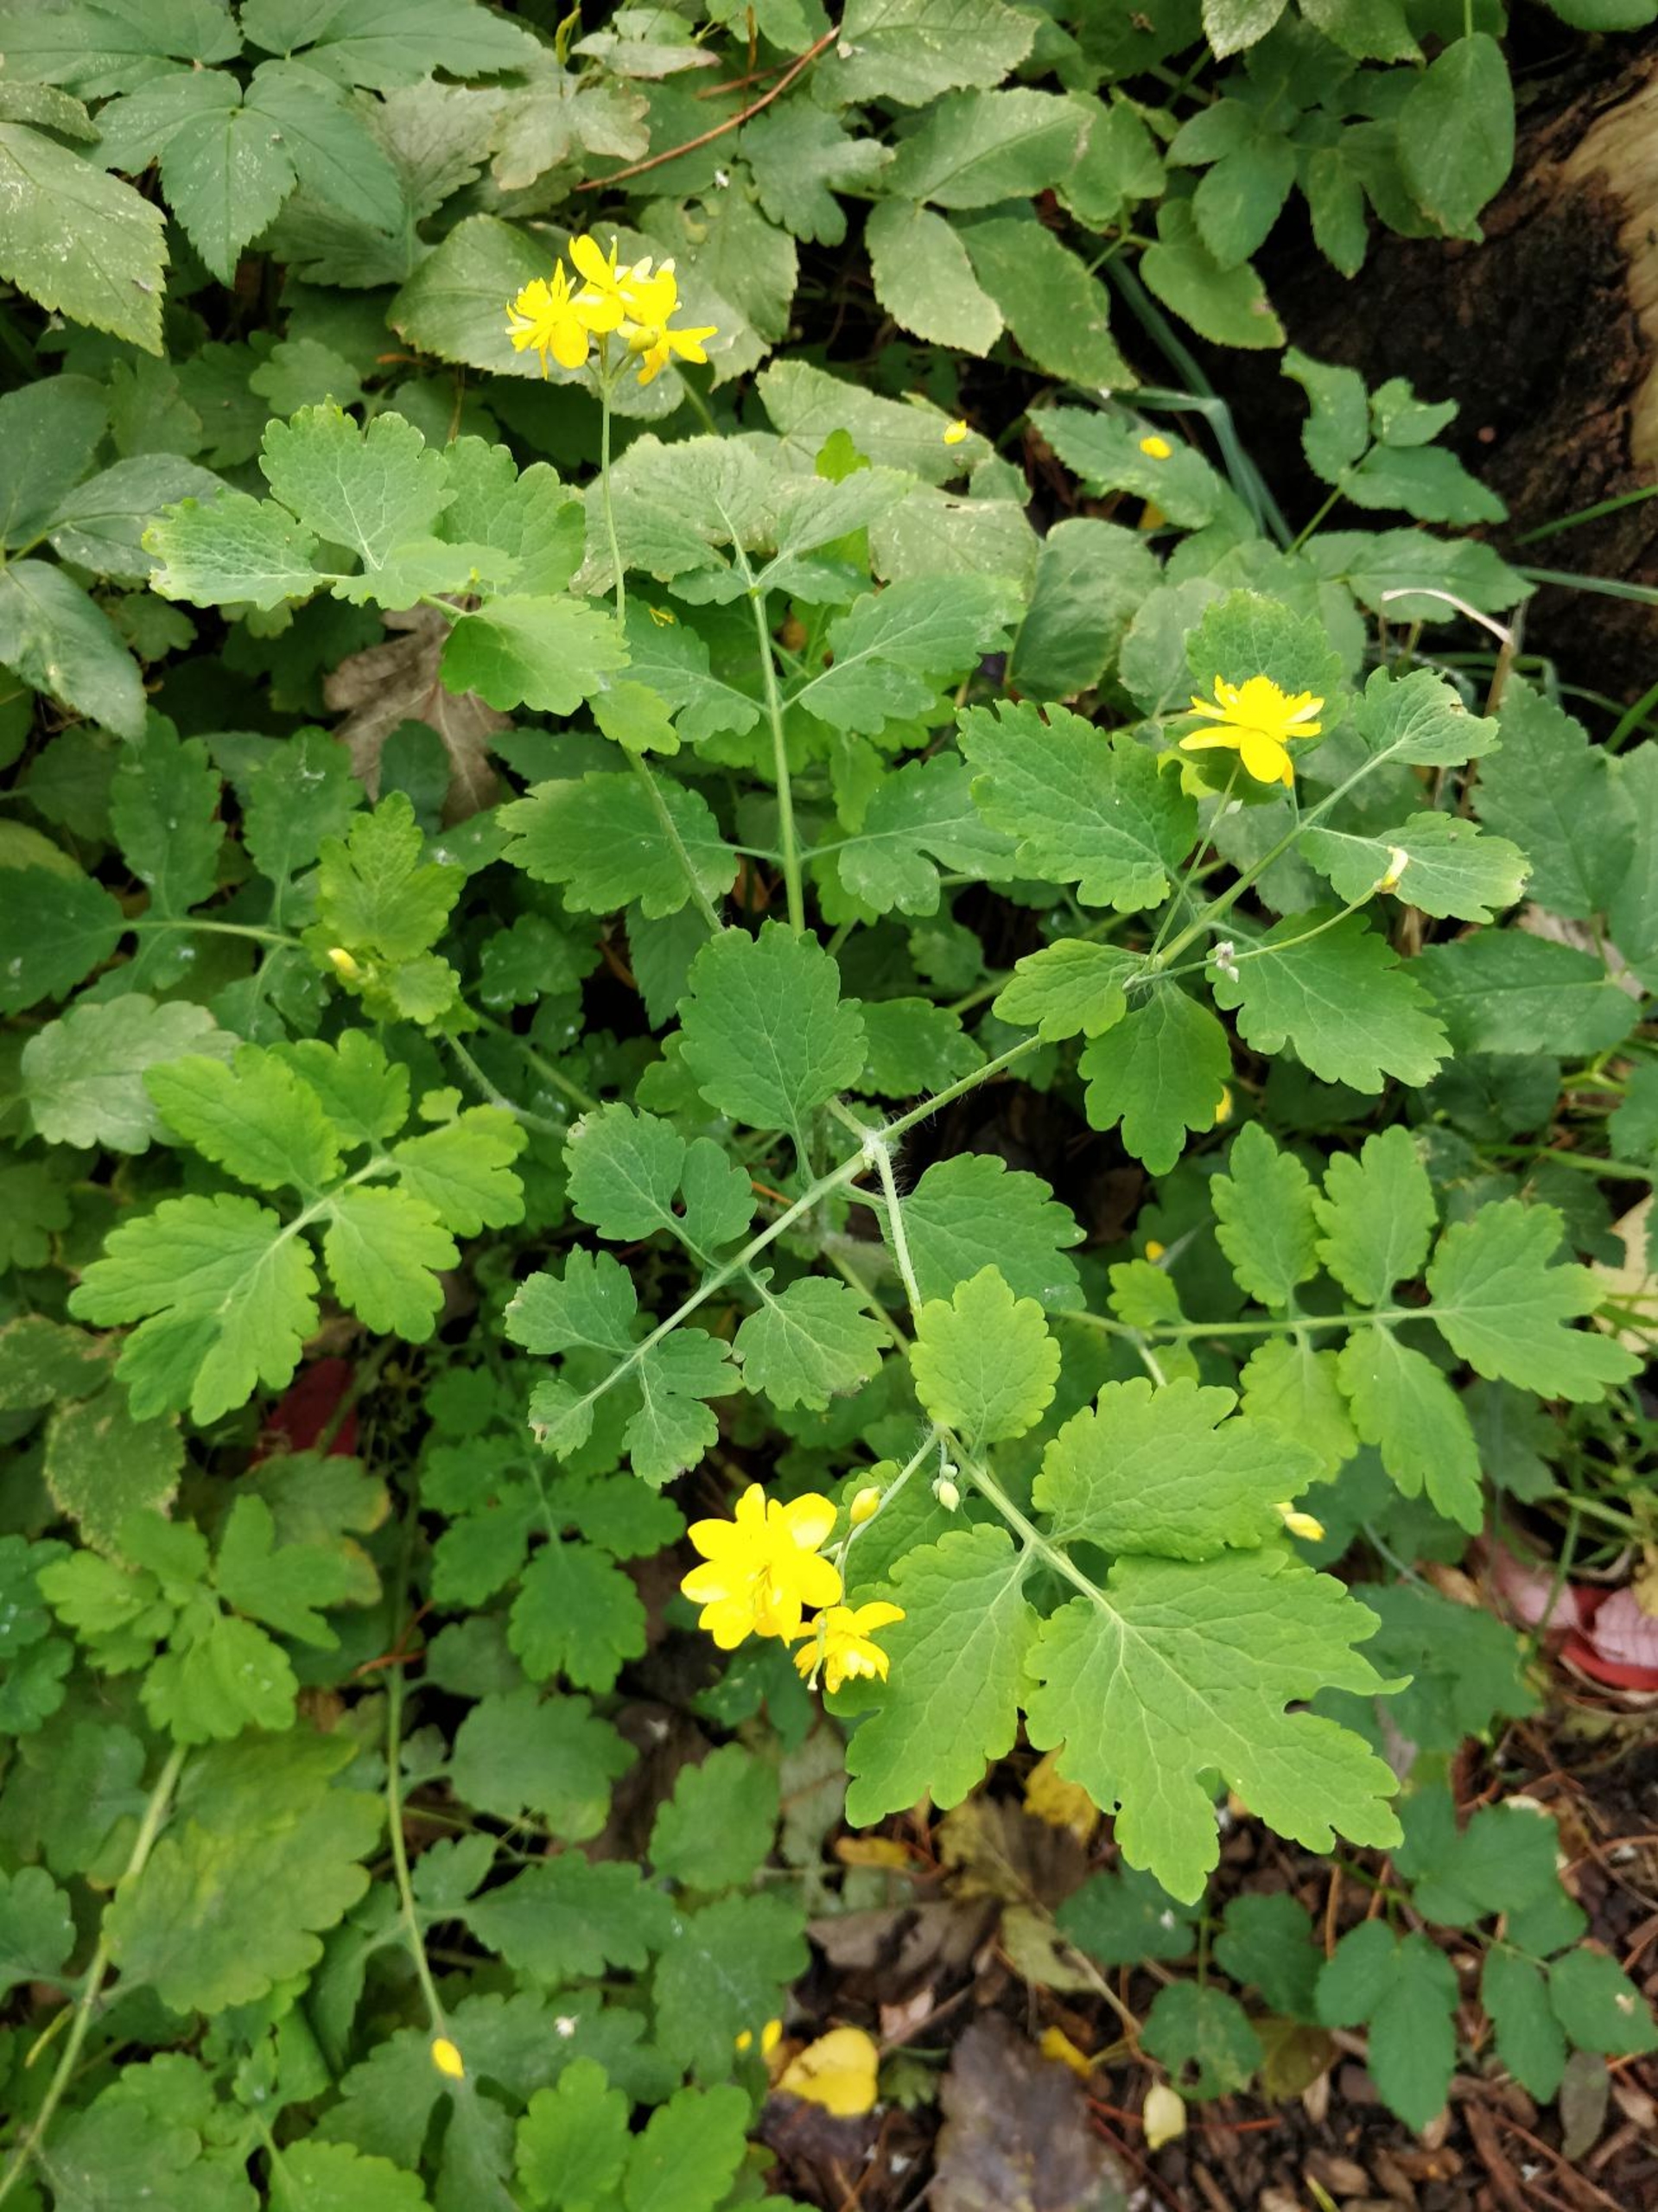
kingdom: Plantae
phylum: Tracheophyta
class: Magnoliopsida
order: Ranunculales
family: Papaveraceae
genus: Chelidonium
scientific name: Chelidonium majus
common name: Svaleurt
